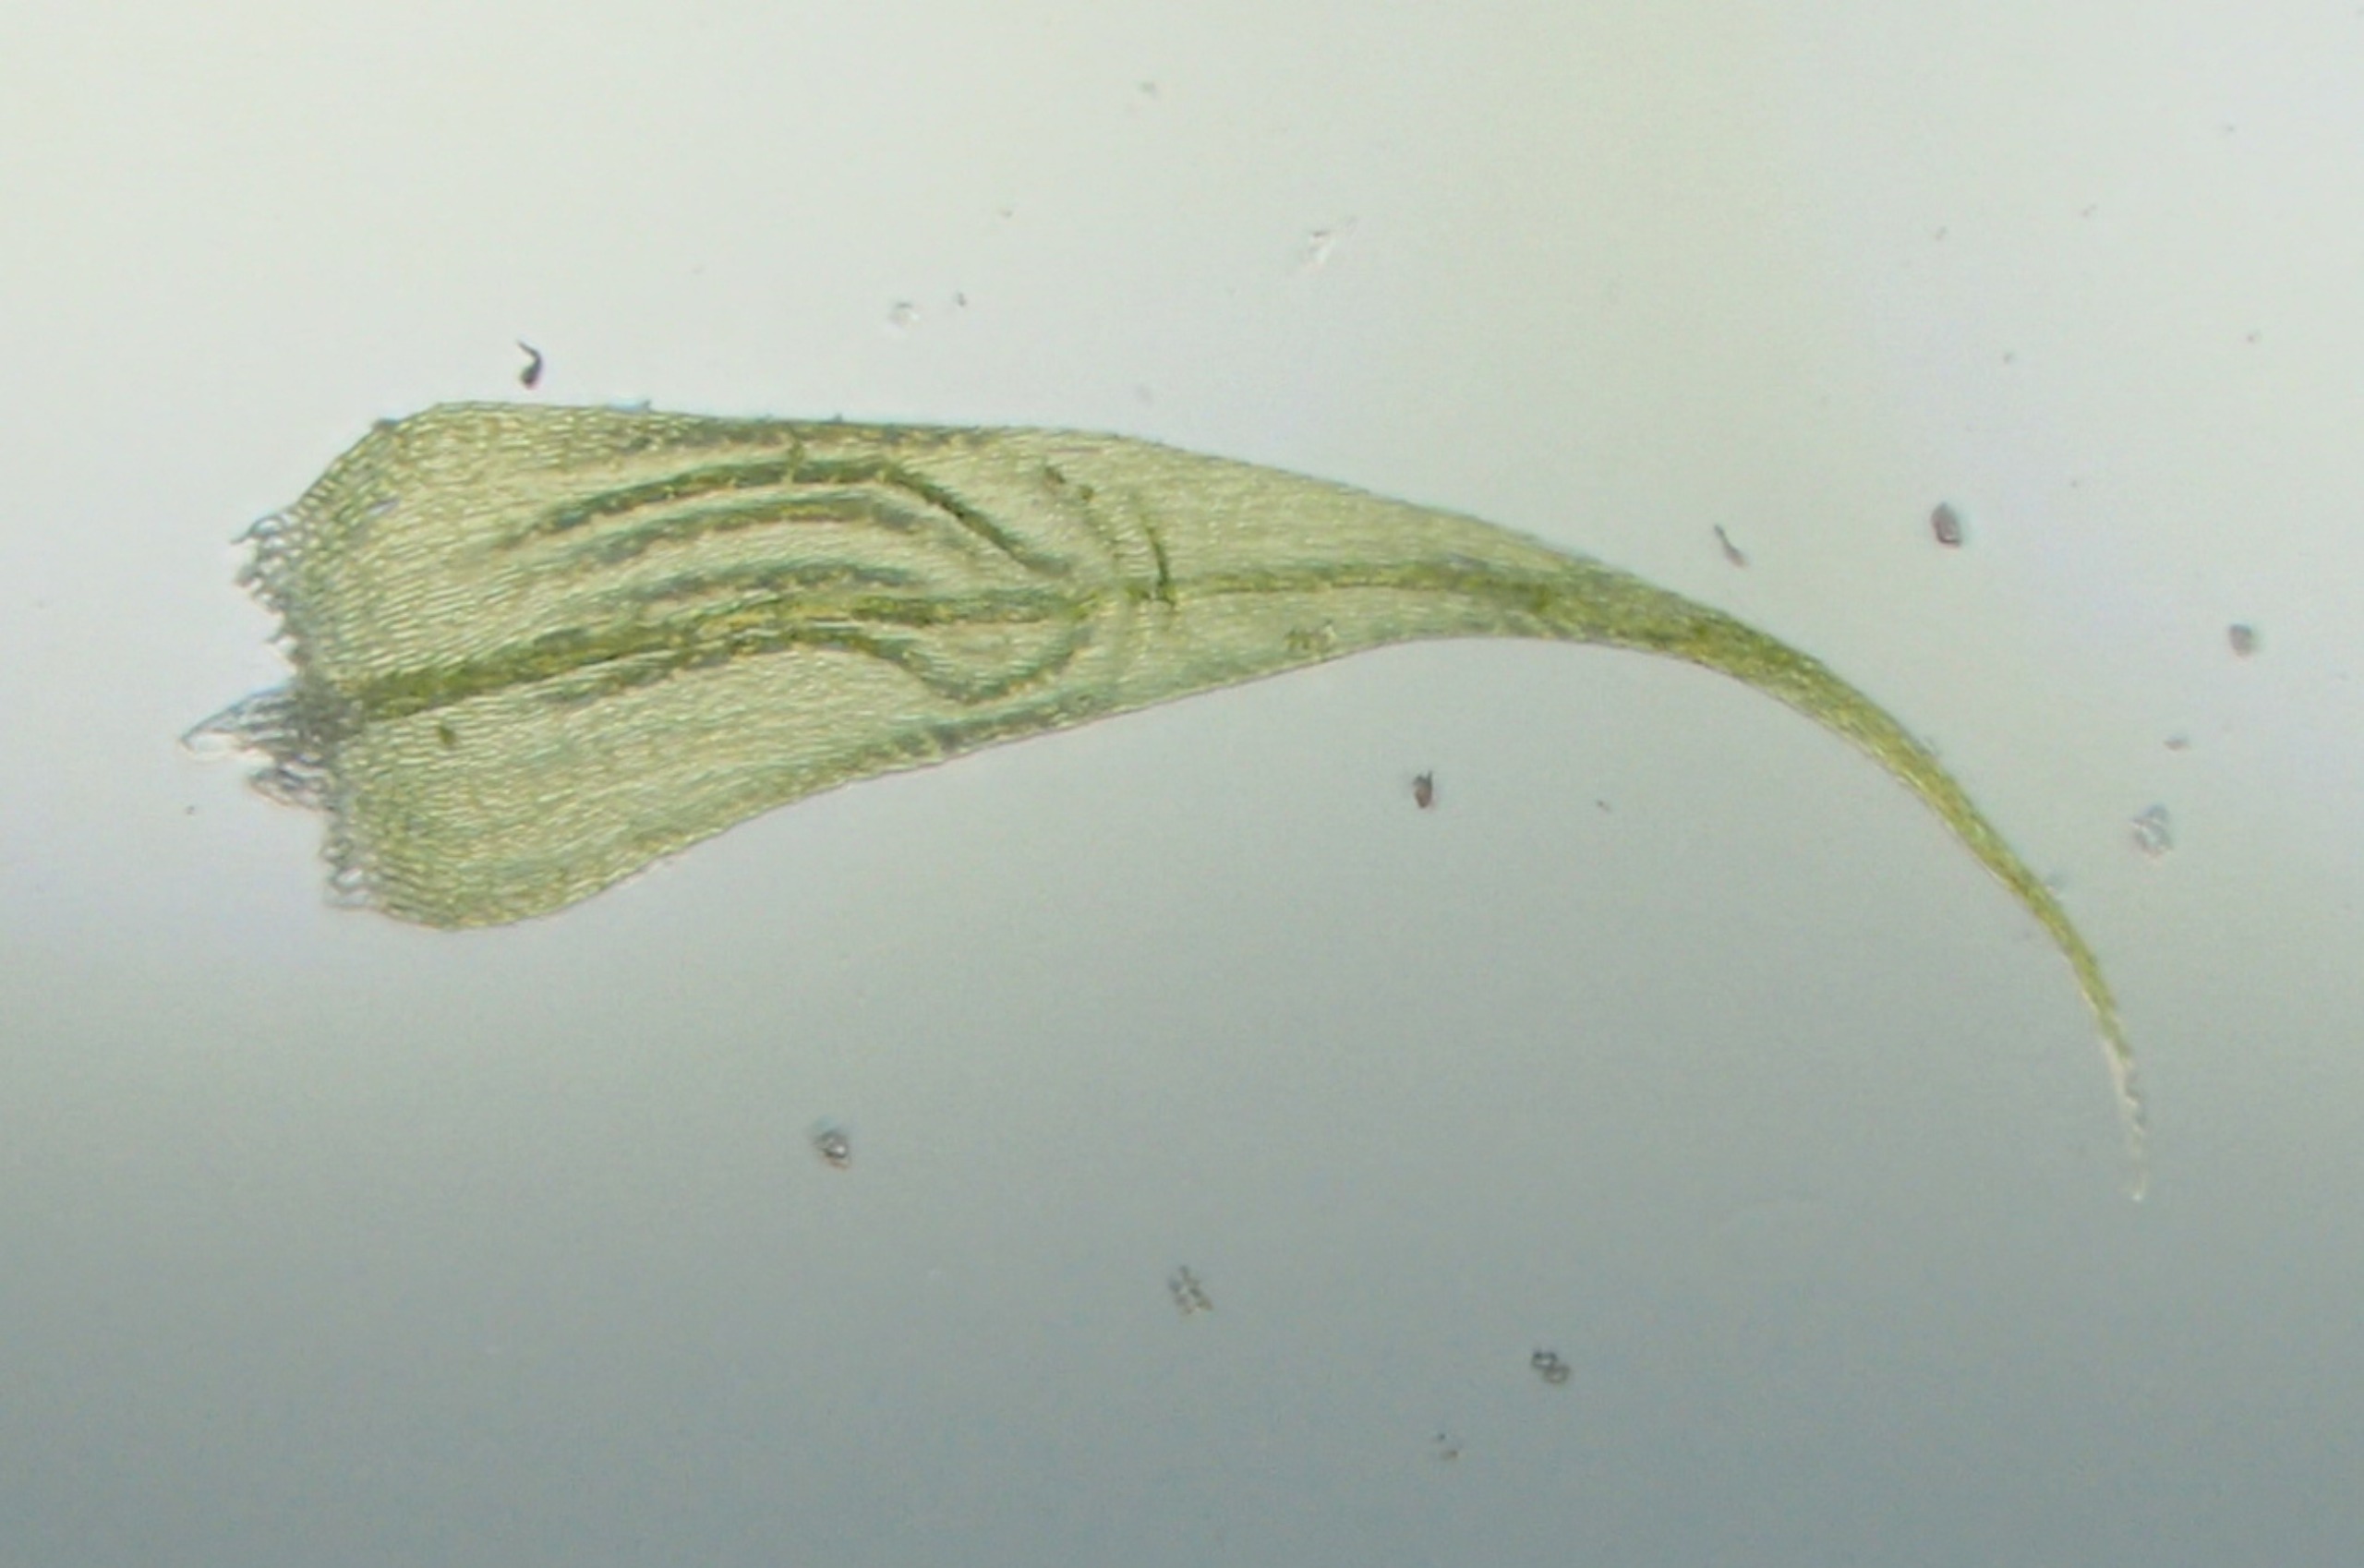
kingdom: Plantae
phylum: Bryophyta
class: Bryopsida
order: Hypnales
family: Scorpidiaceae
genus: Sanionia
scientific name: Sanionia uncinata
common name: Stribet krogblad
